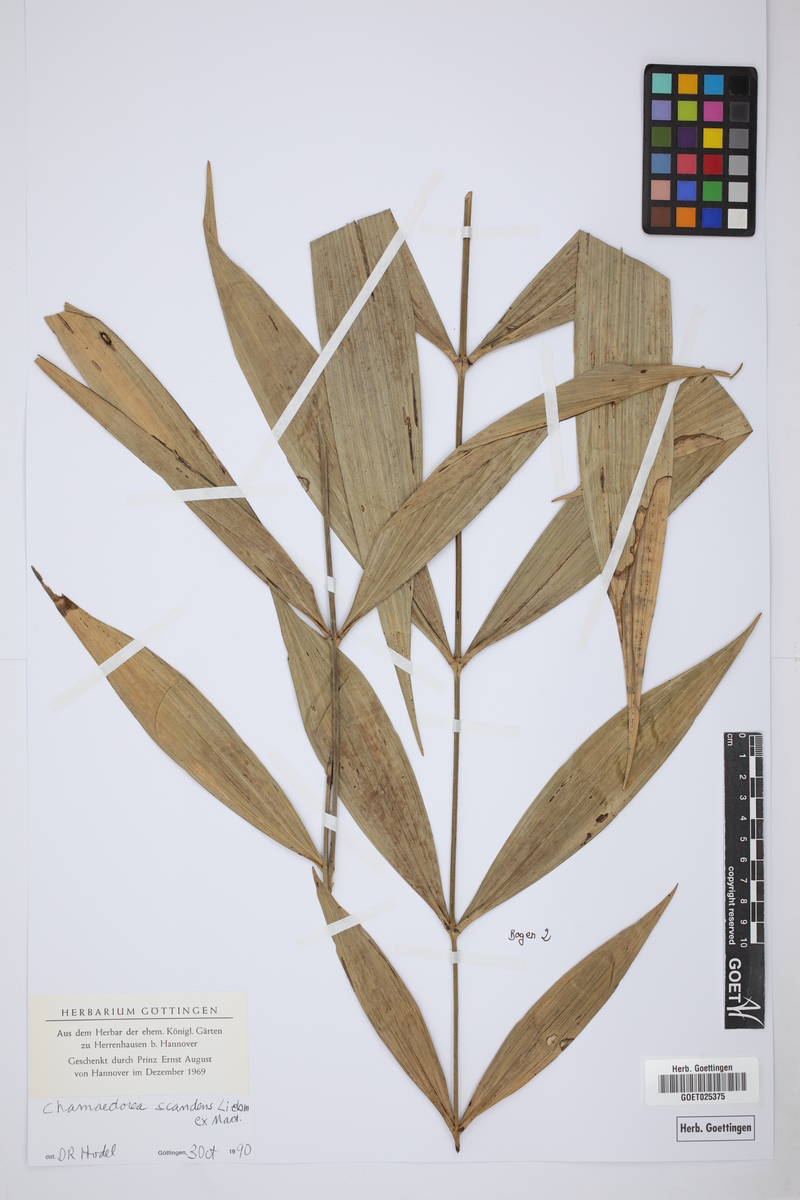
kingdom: Plantae
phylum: Tracheophyta
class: Liliopsida
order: Arecales
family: Arecaceae
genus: Chamaedorea
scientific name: Chamaedorea elatior
